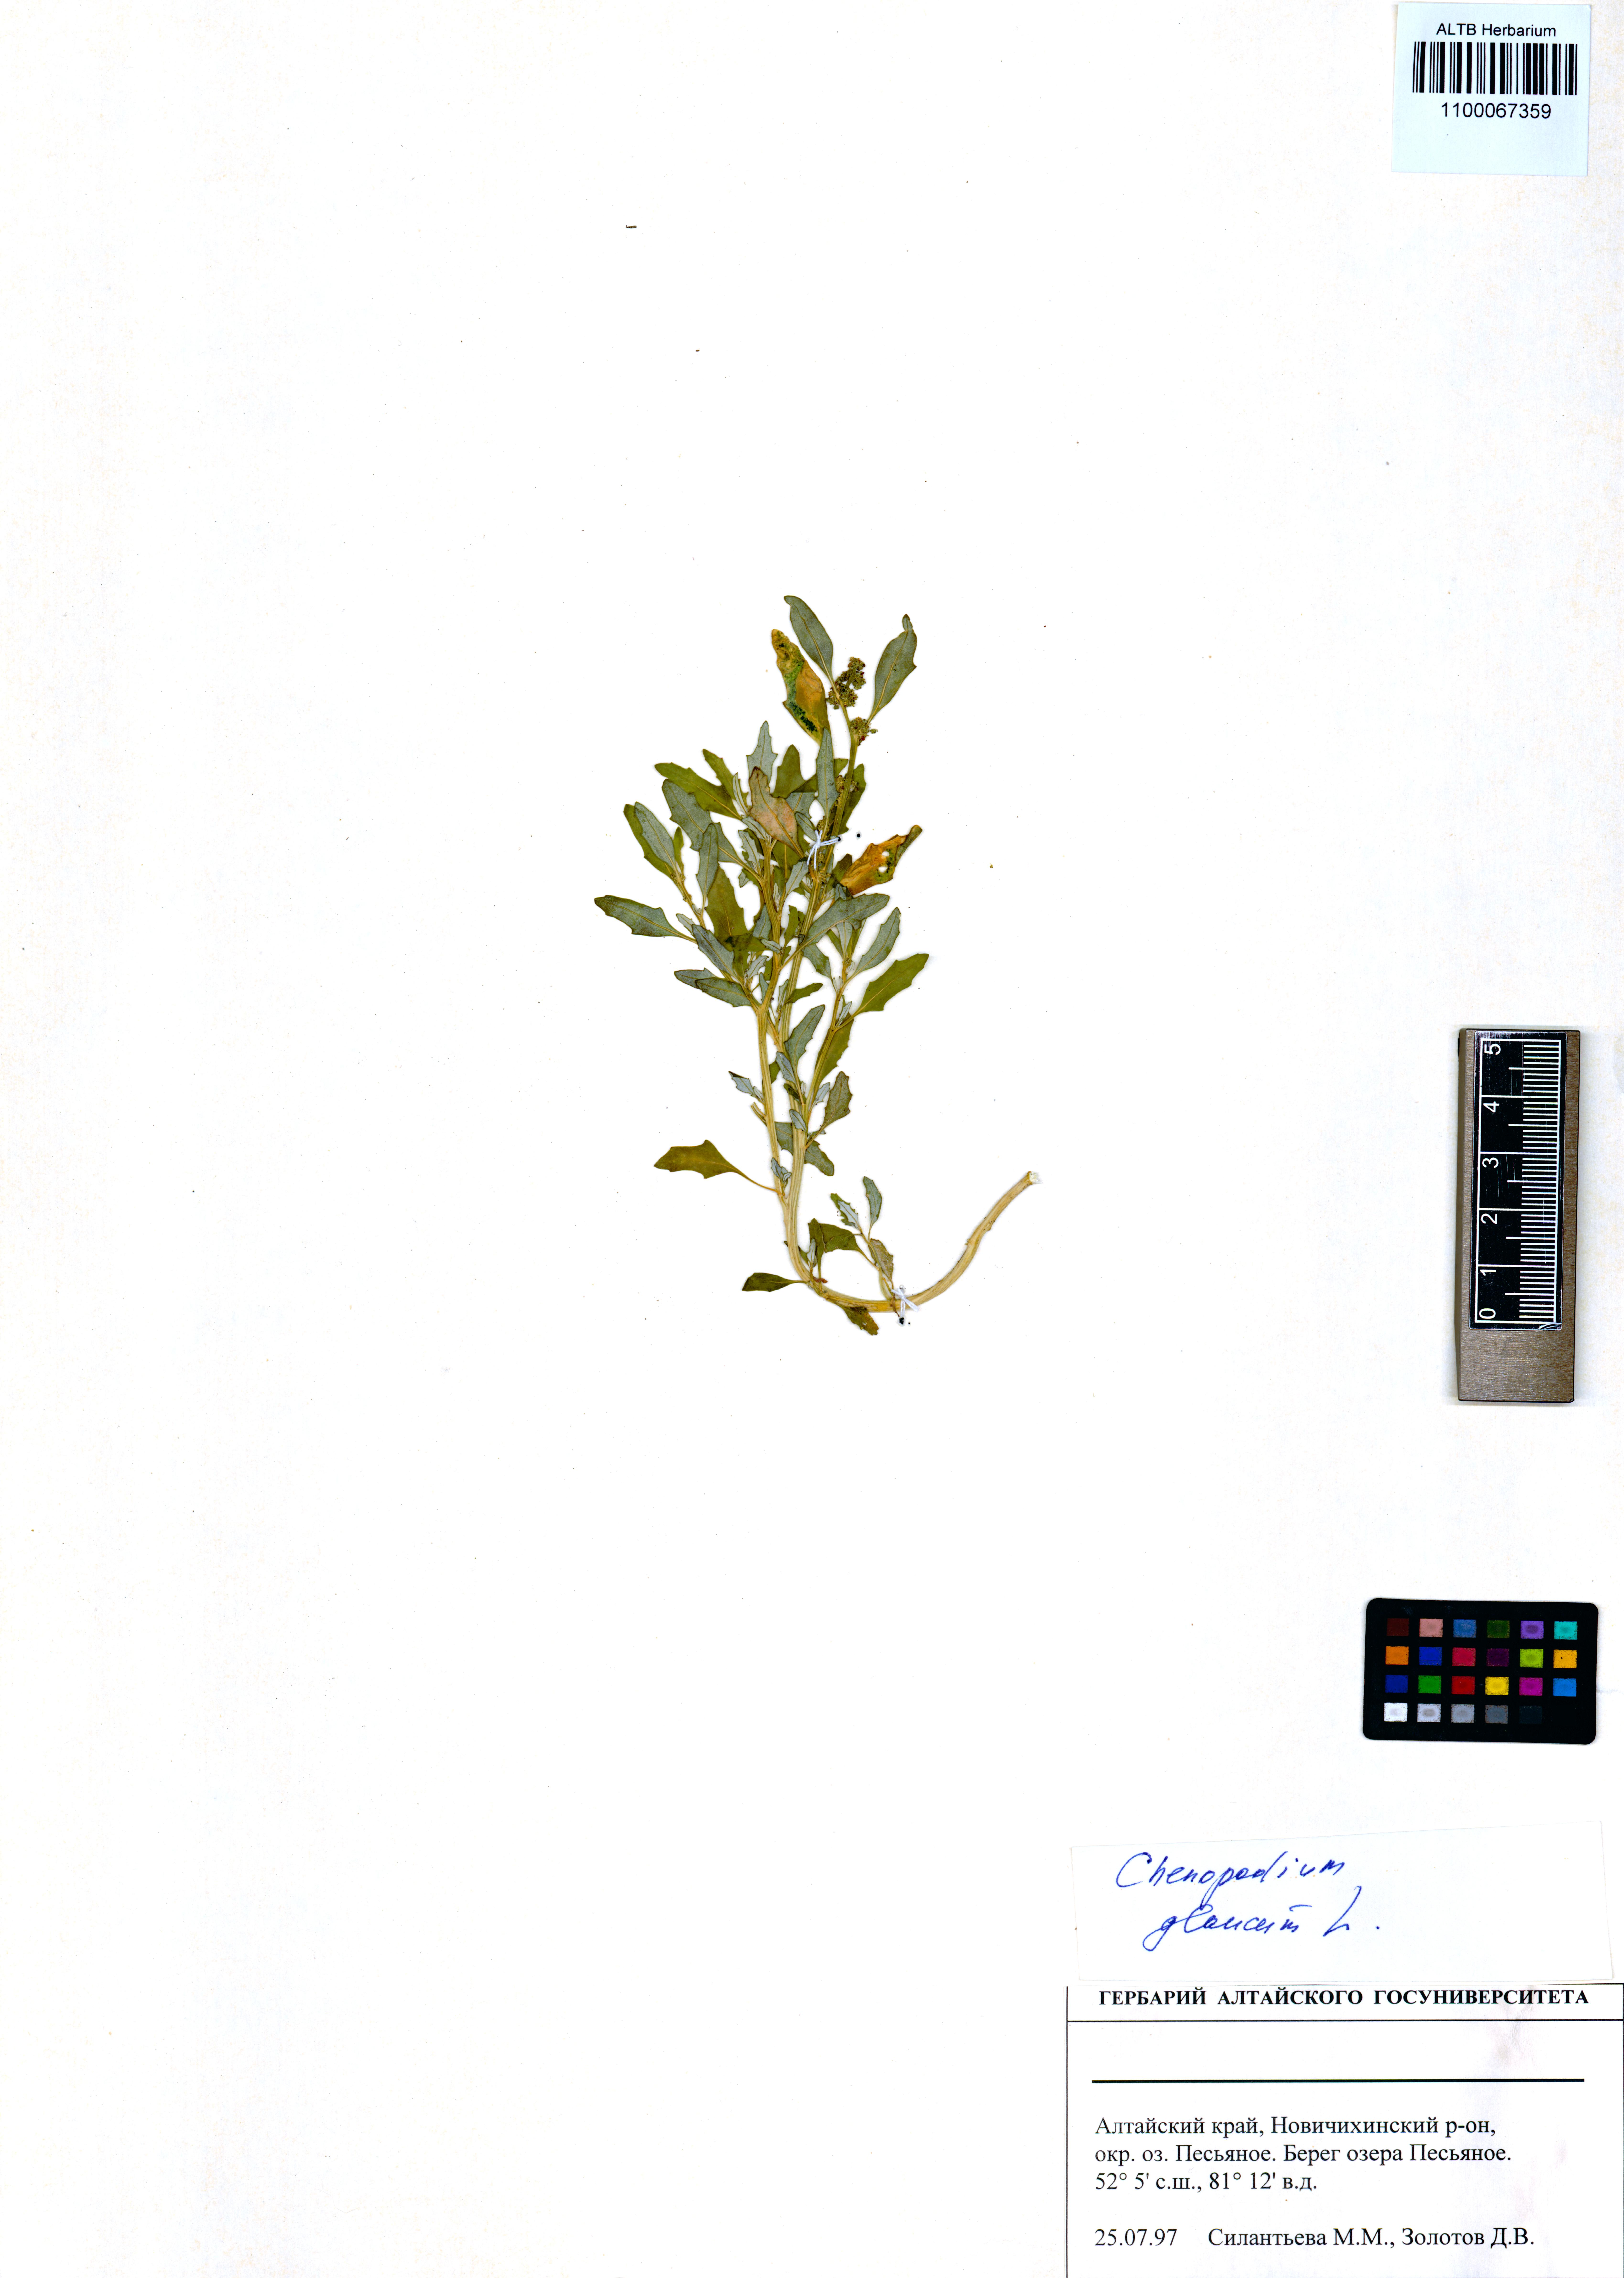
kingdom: Plantae
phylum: Tracheophyta
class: Magnoliopsida
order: Caryophyllales
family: Amaranthaceae
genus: Oxybasis
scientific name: Oxybasis glauca
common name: Glaucous goosefoot
